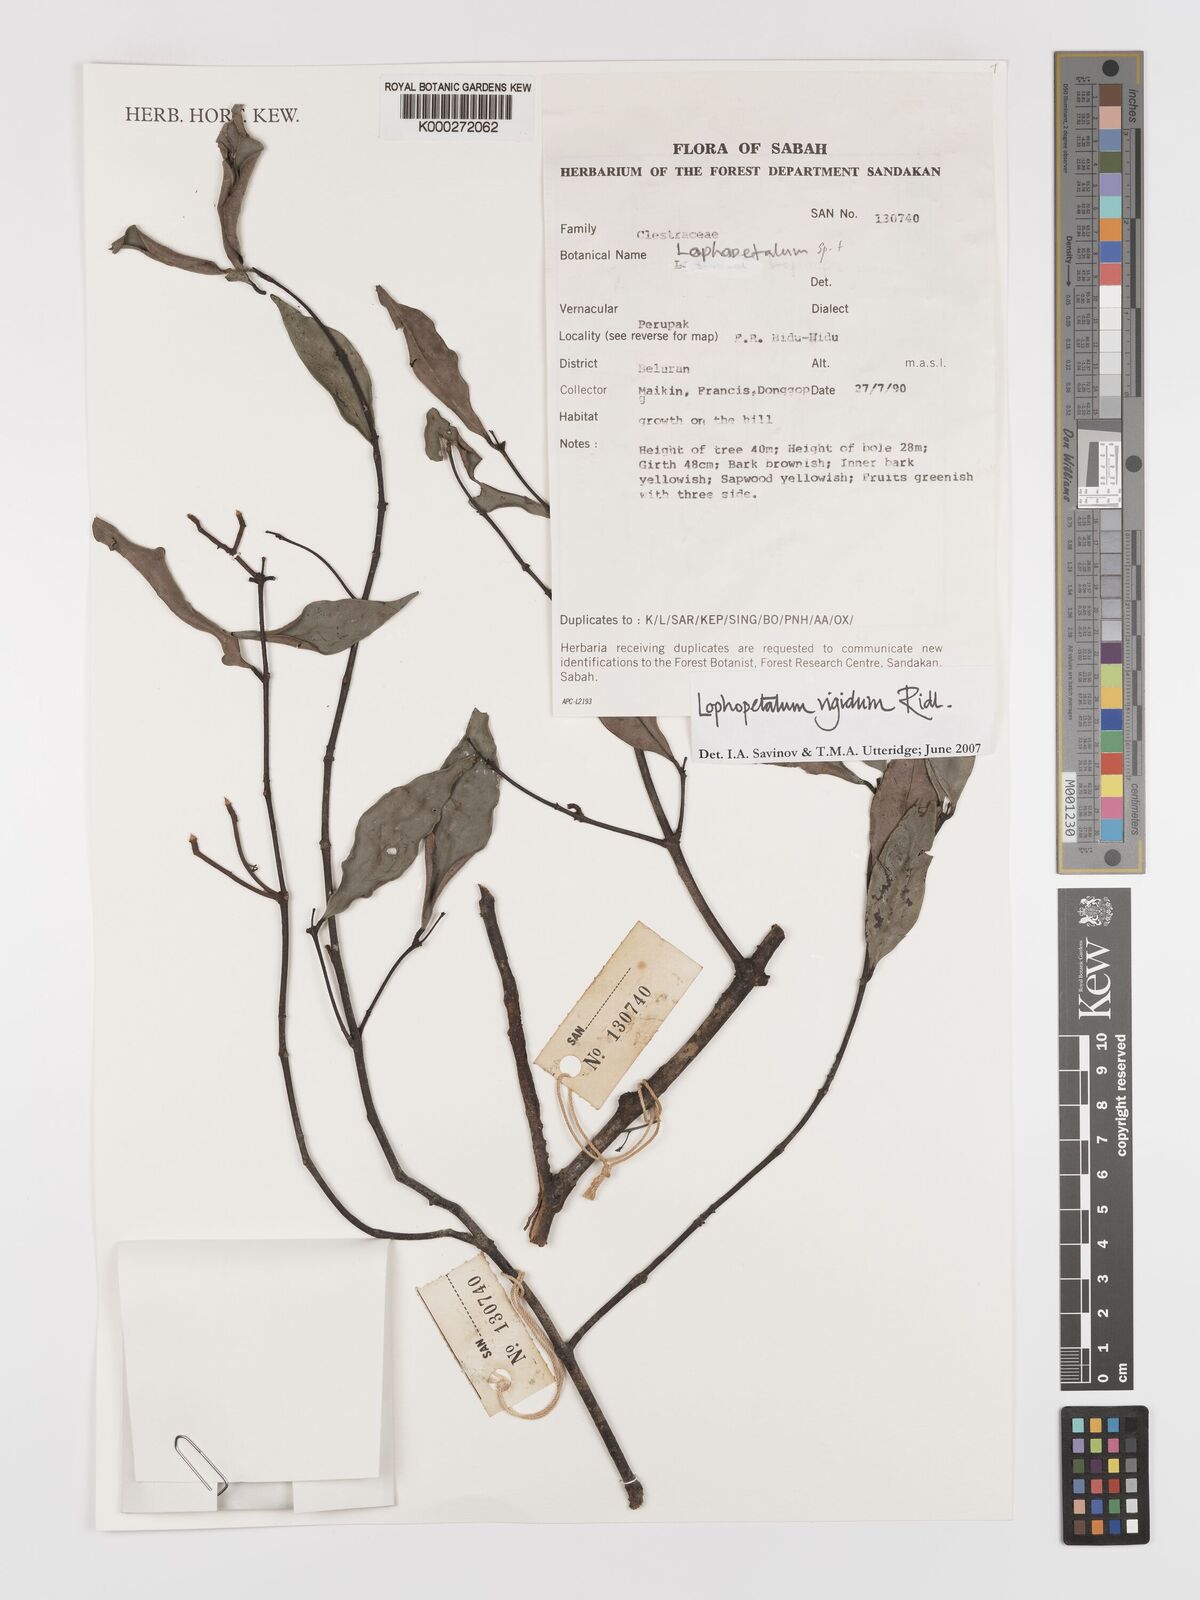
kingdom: Plantae
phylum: Tracheophyta
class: Magnoliopsida
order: Celastrales
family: Celastraceae
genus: Lophopetalum
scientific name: Lophopetalum rigidum
